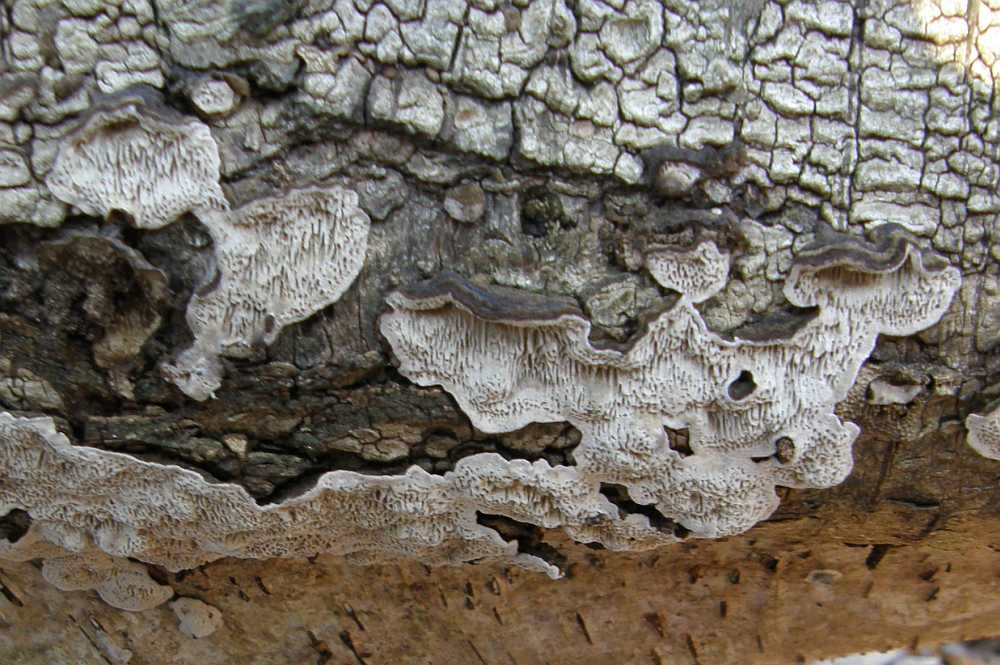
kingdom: Fungi
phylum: Basidiomycota
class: Agaricomycetes
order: Polyporales
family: Polyporaceae
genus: Podofomes
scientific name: Podofomes mollis
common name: blød begporesvamp
